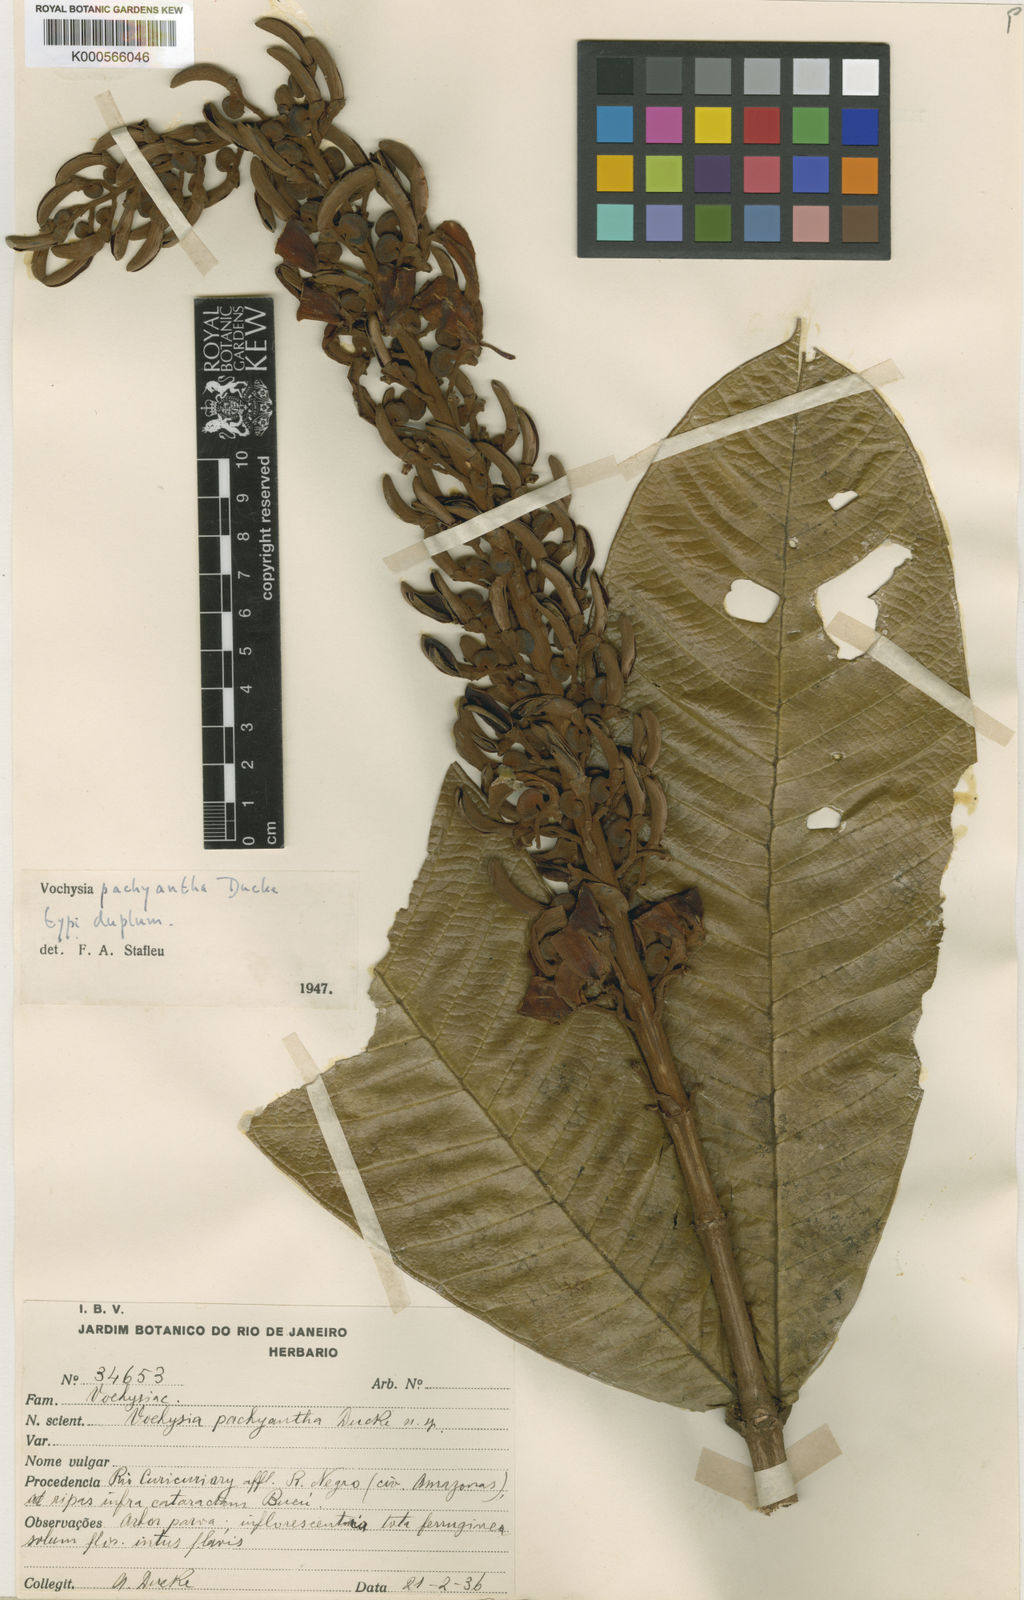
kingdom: Plantae
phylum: Tracheophyta
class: Magnoliopsida
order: Myrtales
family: Vochysiaceae
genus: Vochysia
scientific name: Vochysia pachyantha
